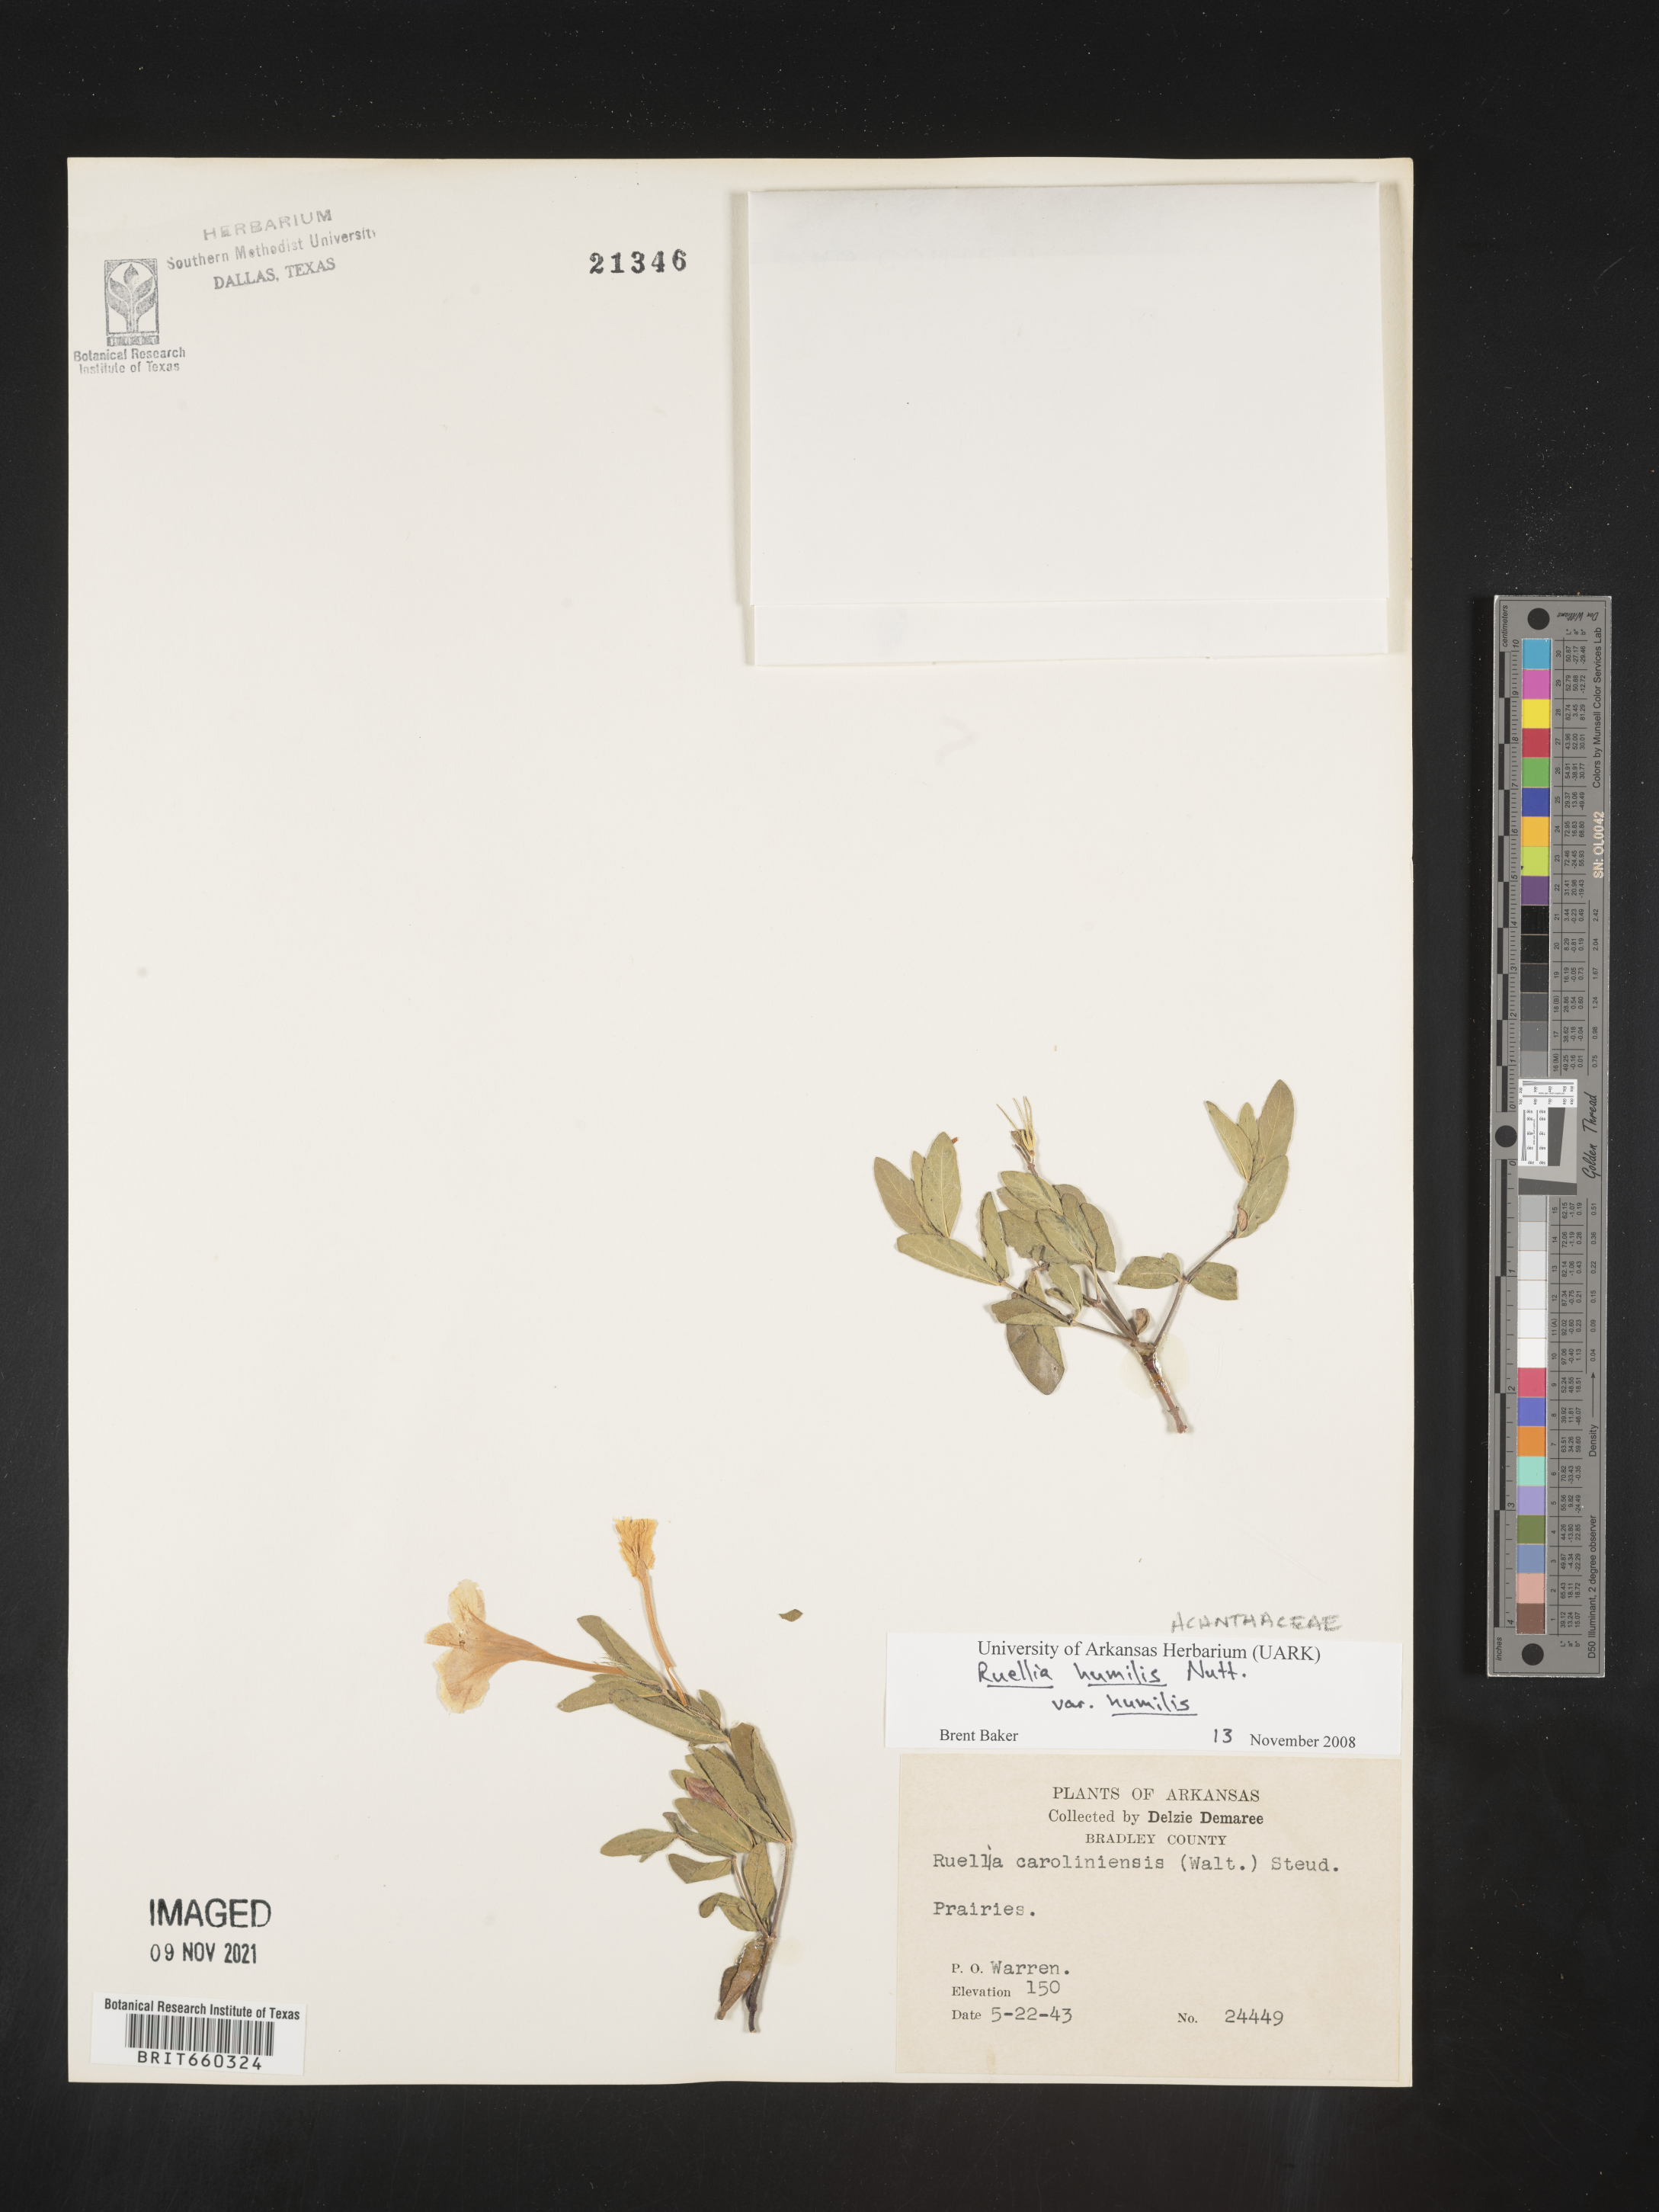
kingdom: Plantae
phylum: Tracheophyta
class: Magnoliopsida
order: Lamiales
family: Acanthaceae
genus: Ruellia
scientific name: Ruellia humilis
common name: Fringe-leaf ruellia
